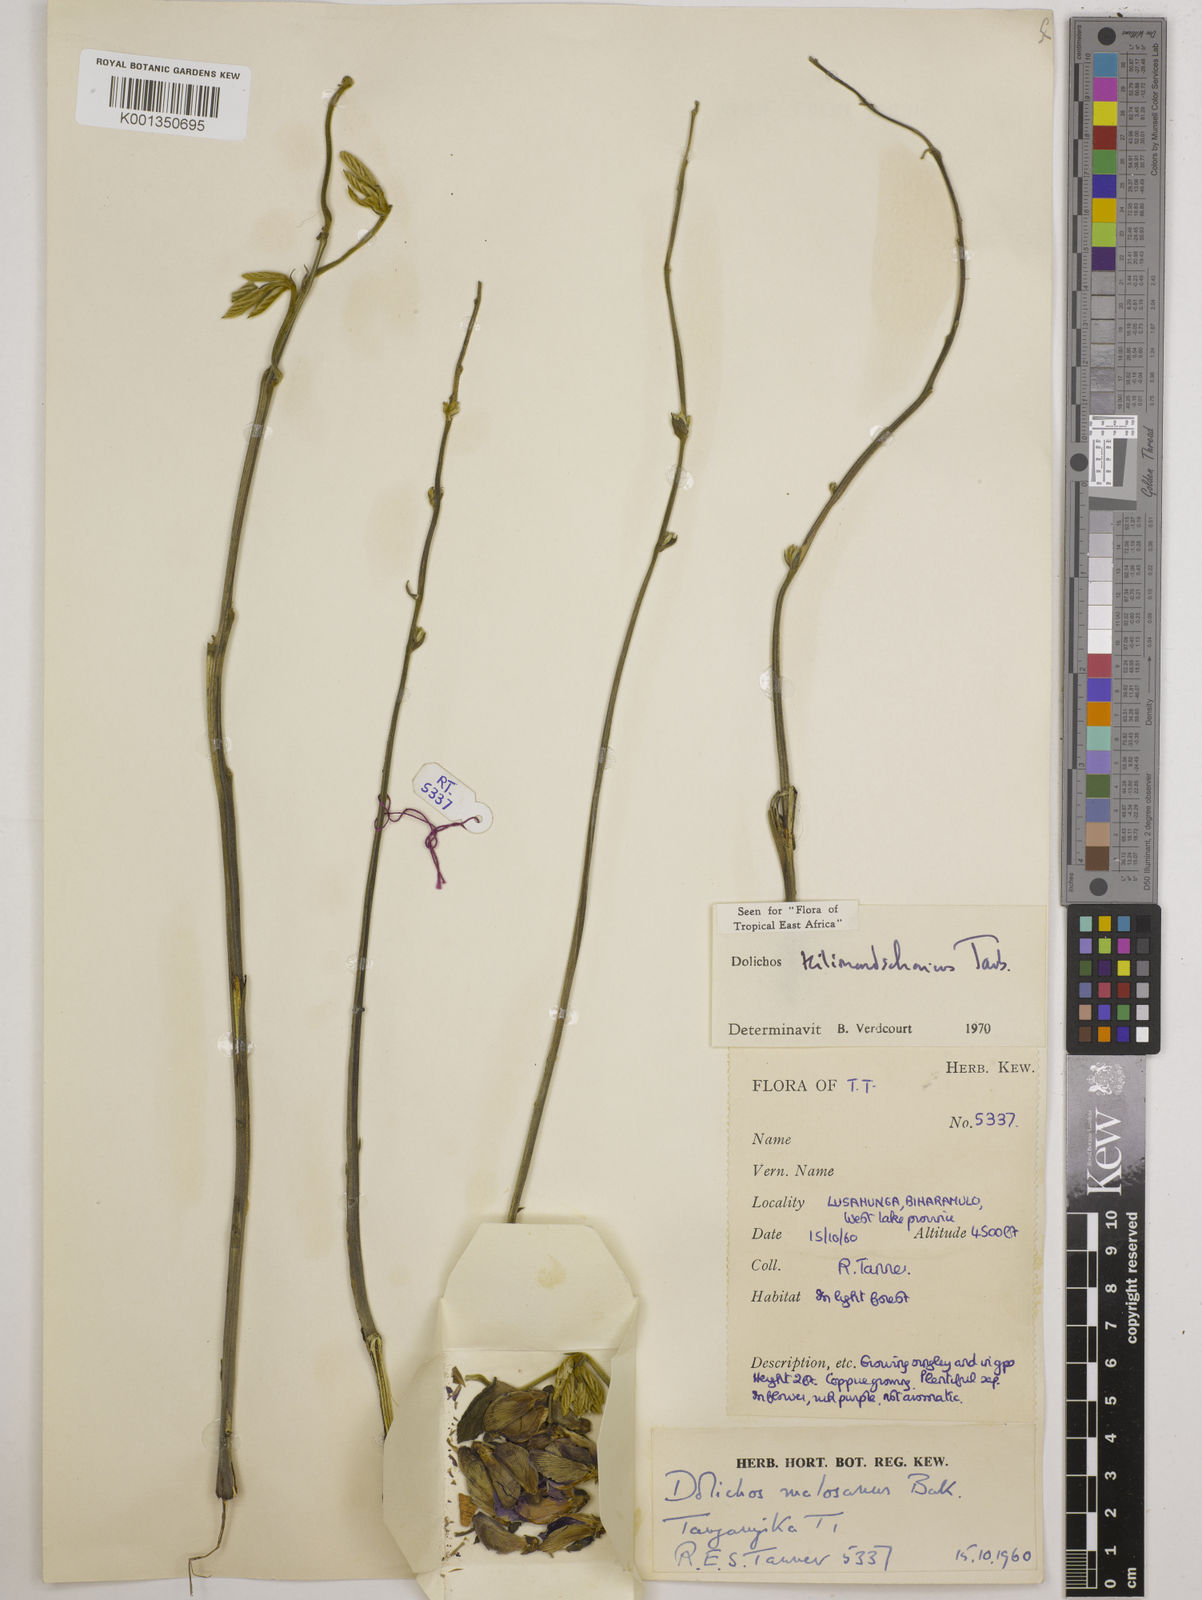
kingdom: Plantae
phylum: Tracheophyta
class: Magnoliopsida
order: Fabales
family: Fabaceae
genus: Dolichos
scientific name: Dolichos kilimandscharicus
